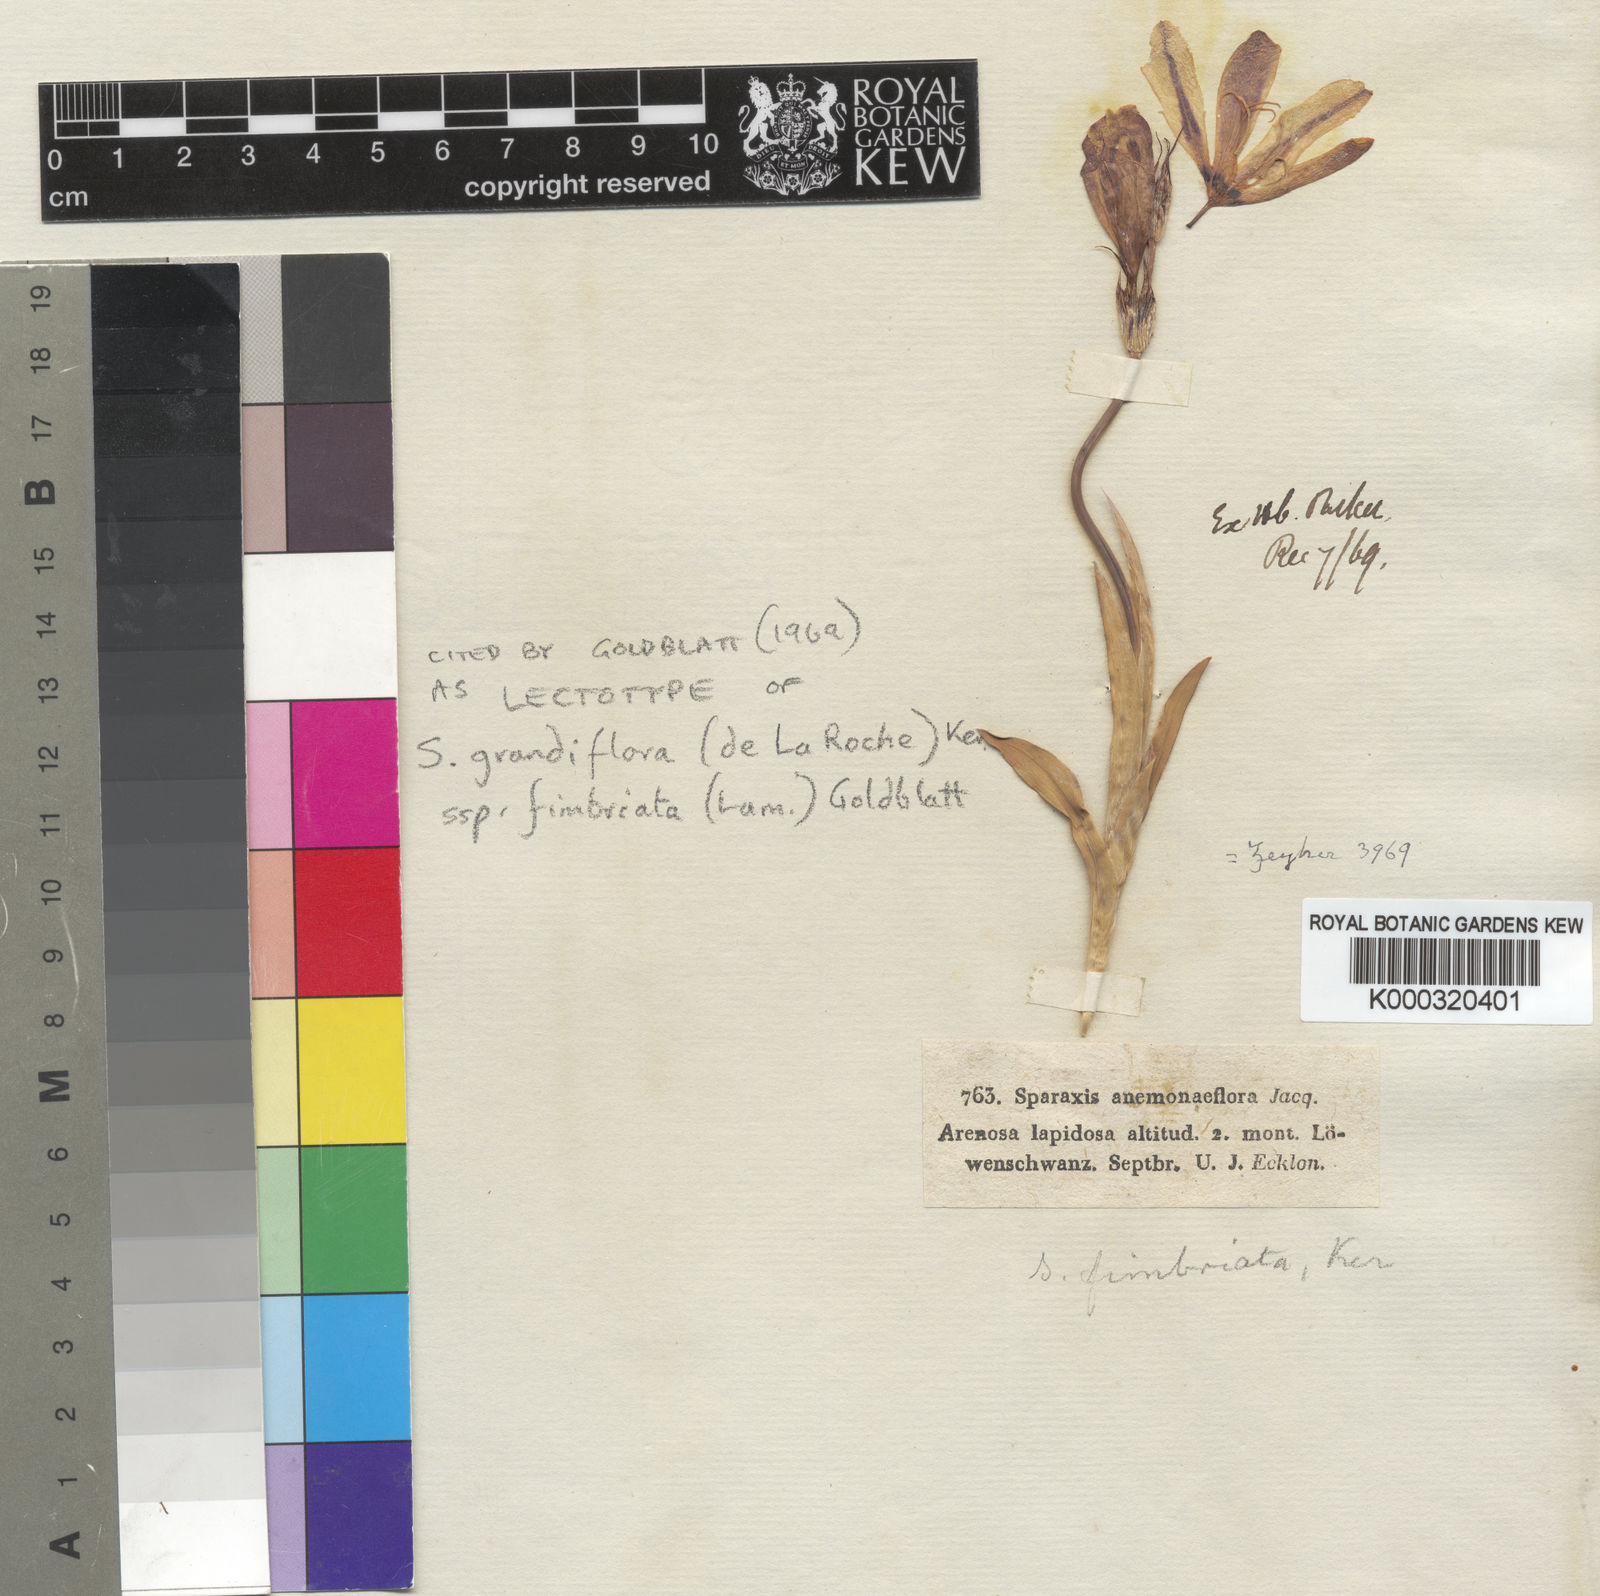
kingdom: Plantae
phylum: Tracheophyta
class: Liliopsida
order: Asparagales
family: Iridaceae
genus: Sparaxis
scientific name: Sparaxis grandiflora
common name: Plain harlequin-flower
